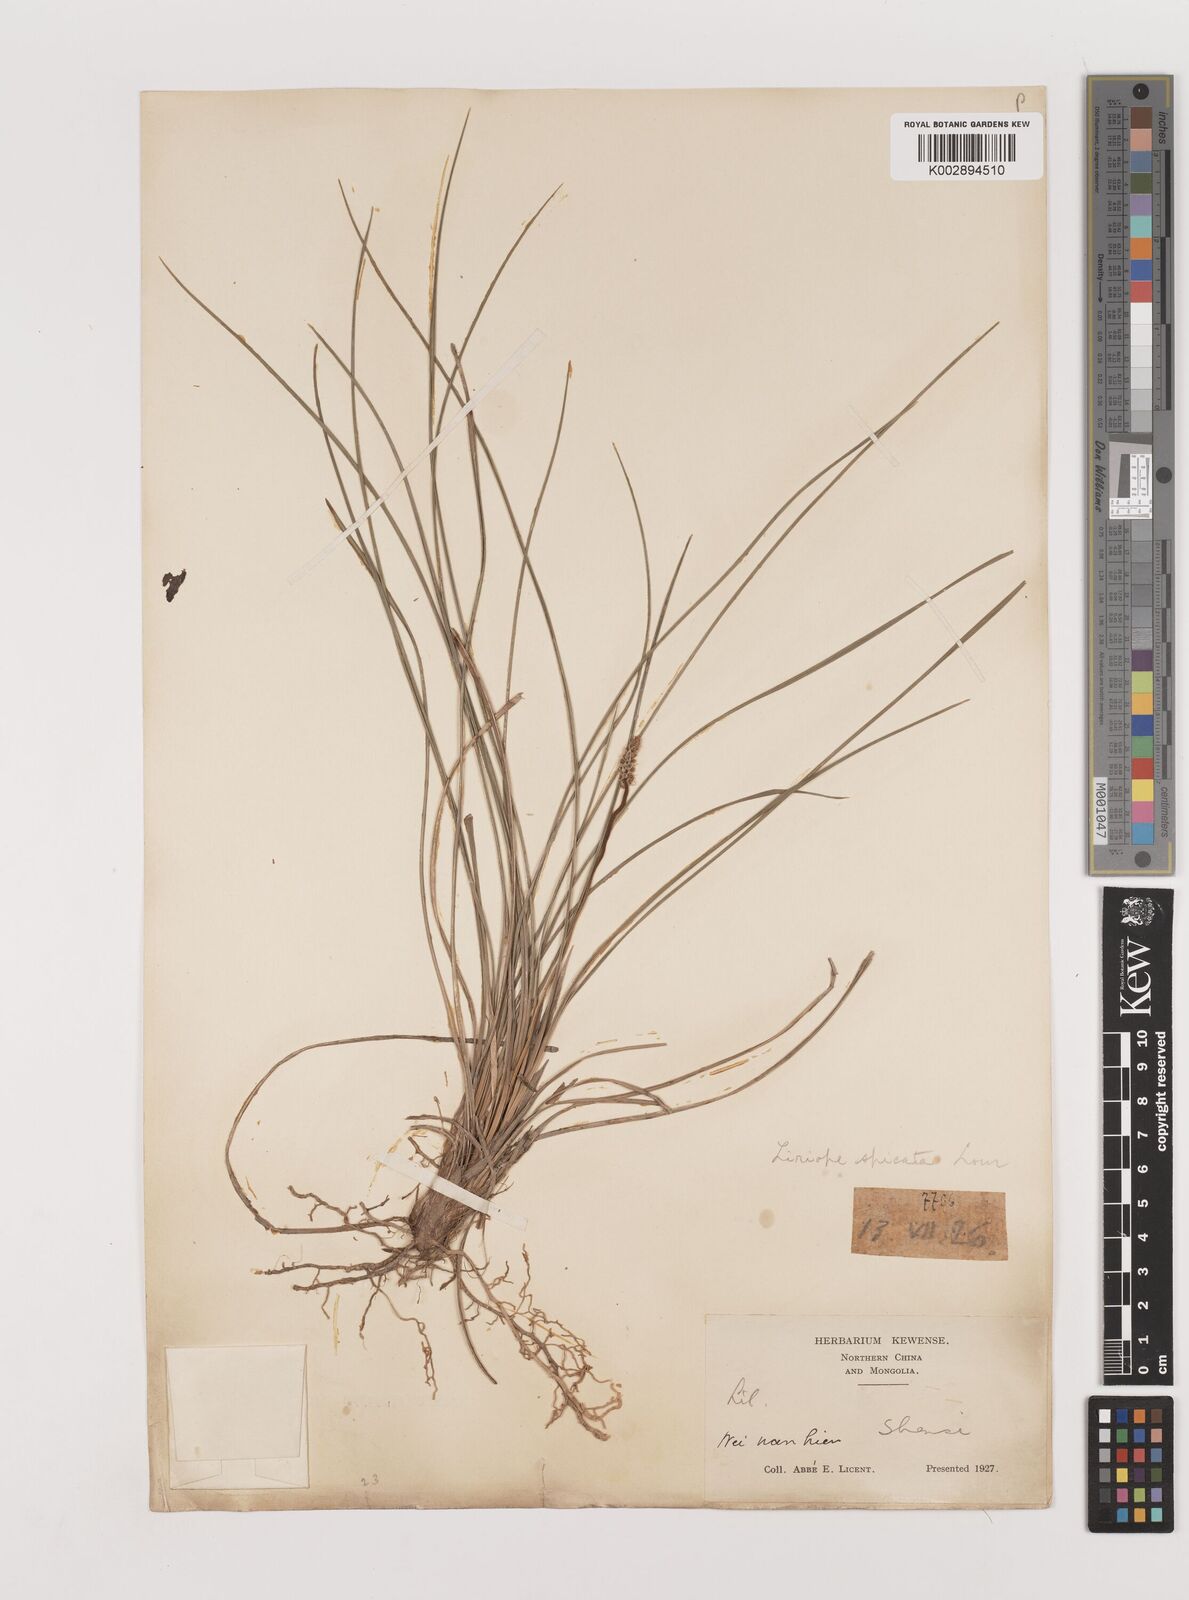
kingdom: Plantae
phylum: Tracheophyta
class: Liliopsida
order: Asparagales
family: Asparagaceae
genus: Liriope
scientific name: Liriope spicata
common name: Creeping liriope
